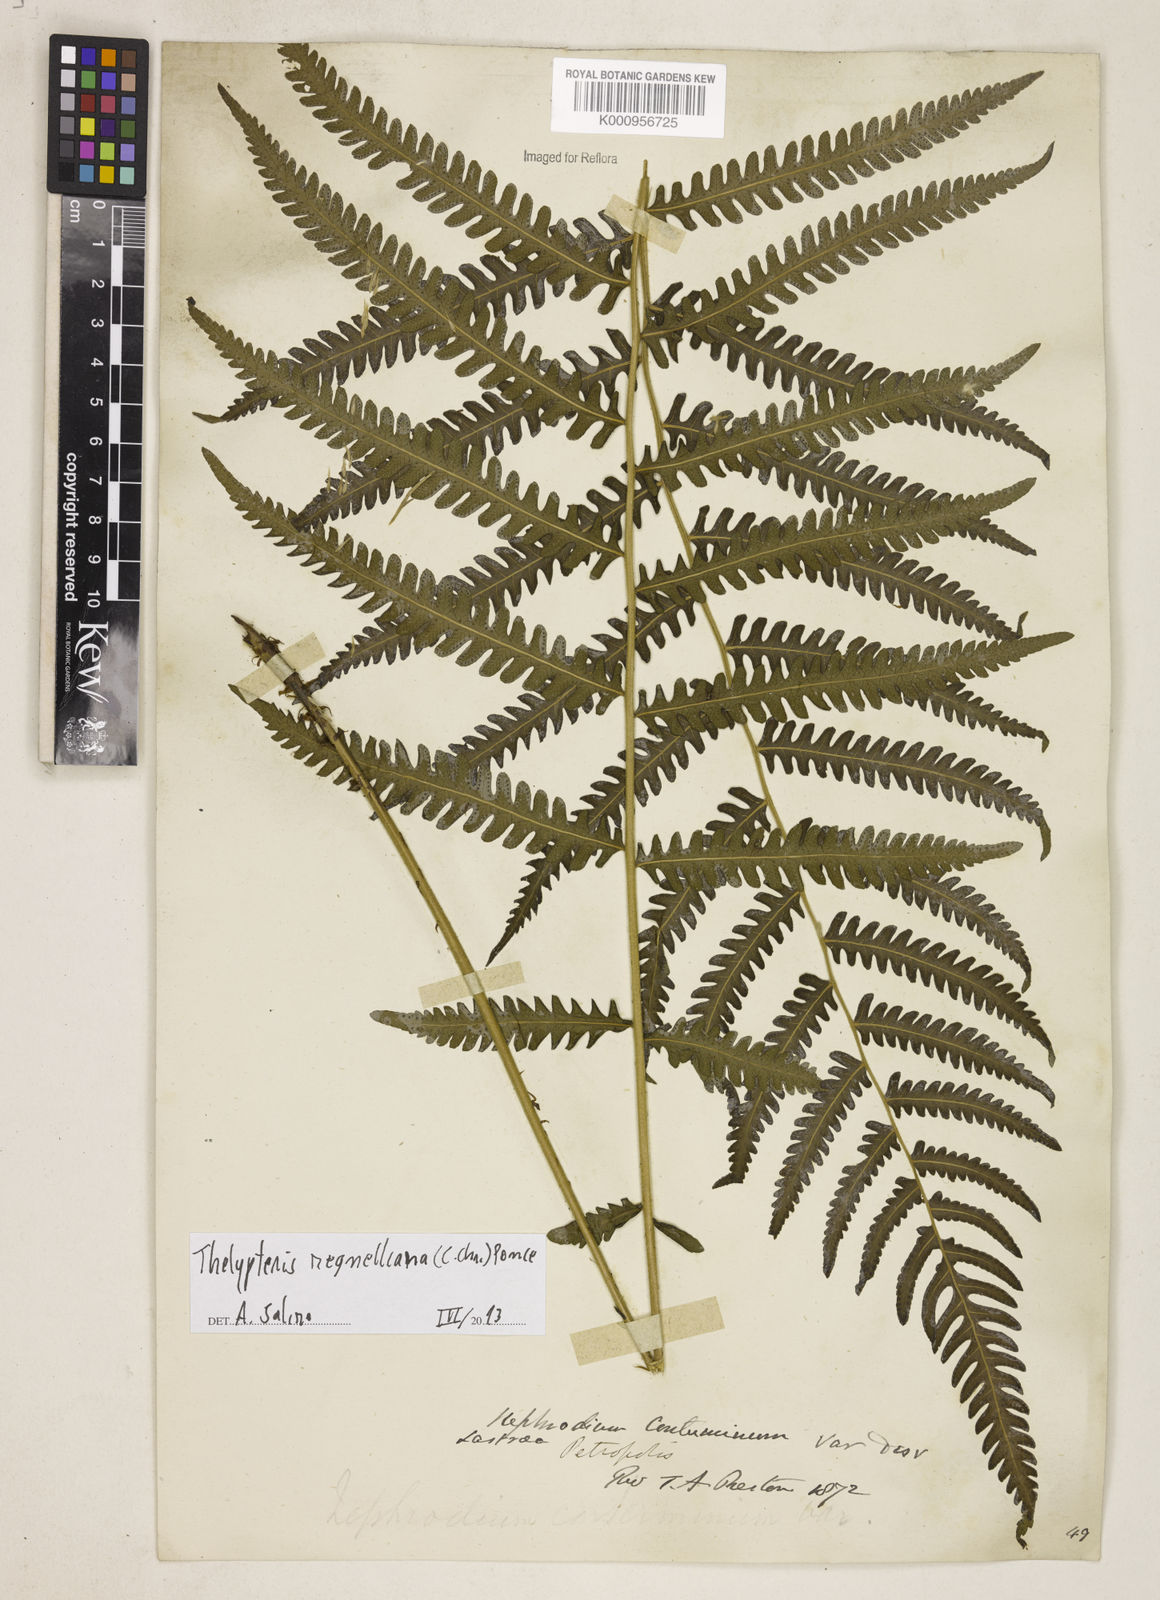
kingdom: Plantae
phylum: Tracheophyta
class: Polypodiopsida
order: Polypodiales
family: Thelypteridaceae
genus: Amauropelta
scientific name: Amauropelta
